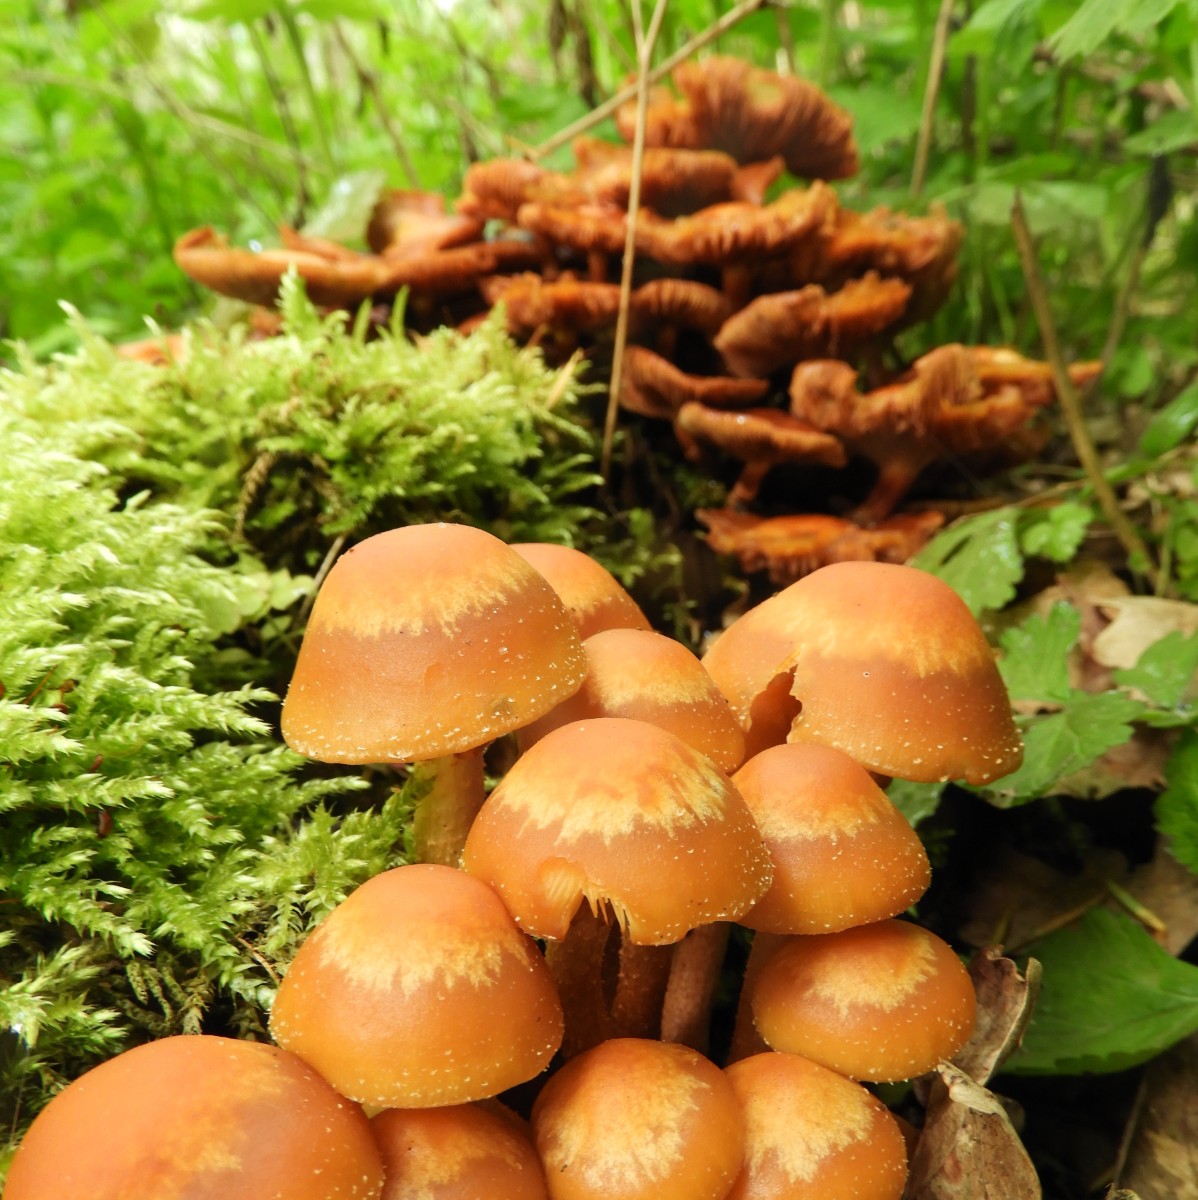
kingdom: Fungi
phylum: Basidiomycota
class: Agaricomycetes
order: Agaricales
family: Strophariaceae
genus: Kuehneromyces
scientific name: Kuehneromyces mutabilis
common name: foranderlig skælhat
